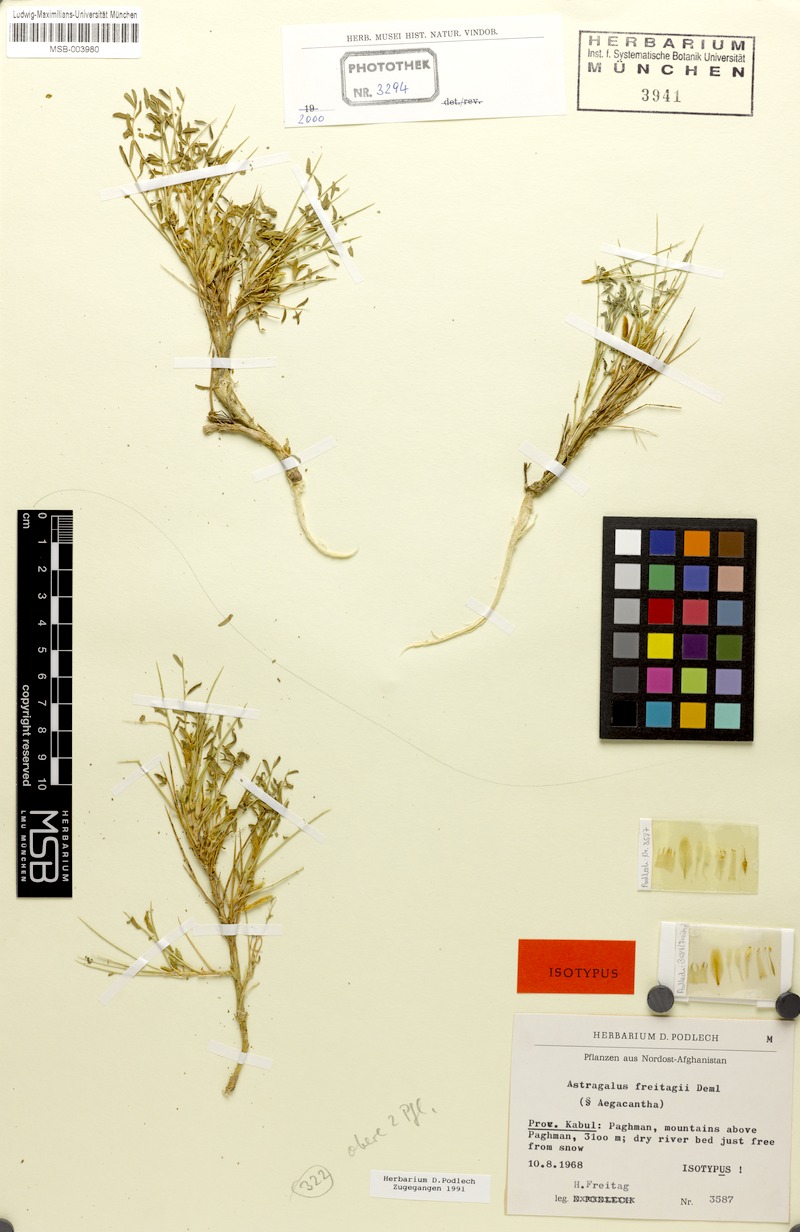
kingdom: Plantae
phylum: Tracheophyta
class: Magnoliopsida
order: Fabales
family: Fabaceae
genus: Astragalus
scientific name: Astragalus freitagii
